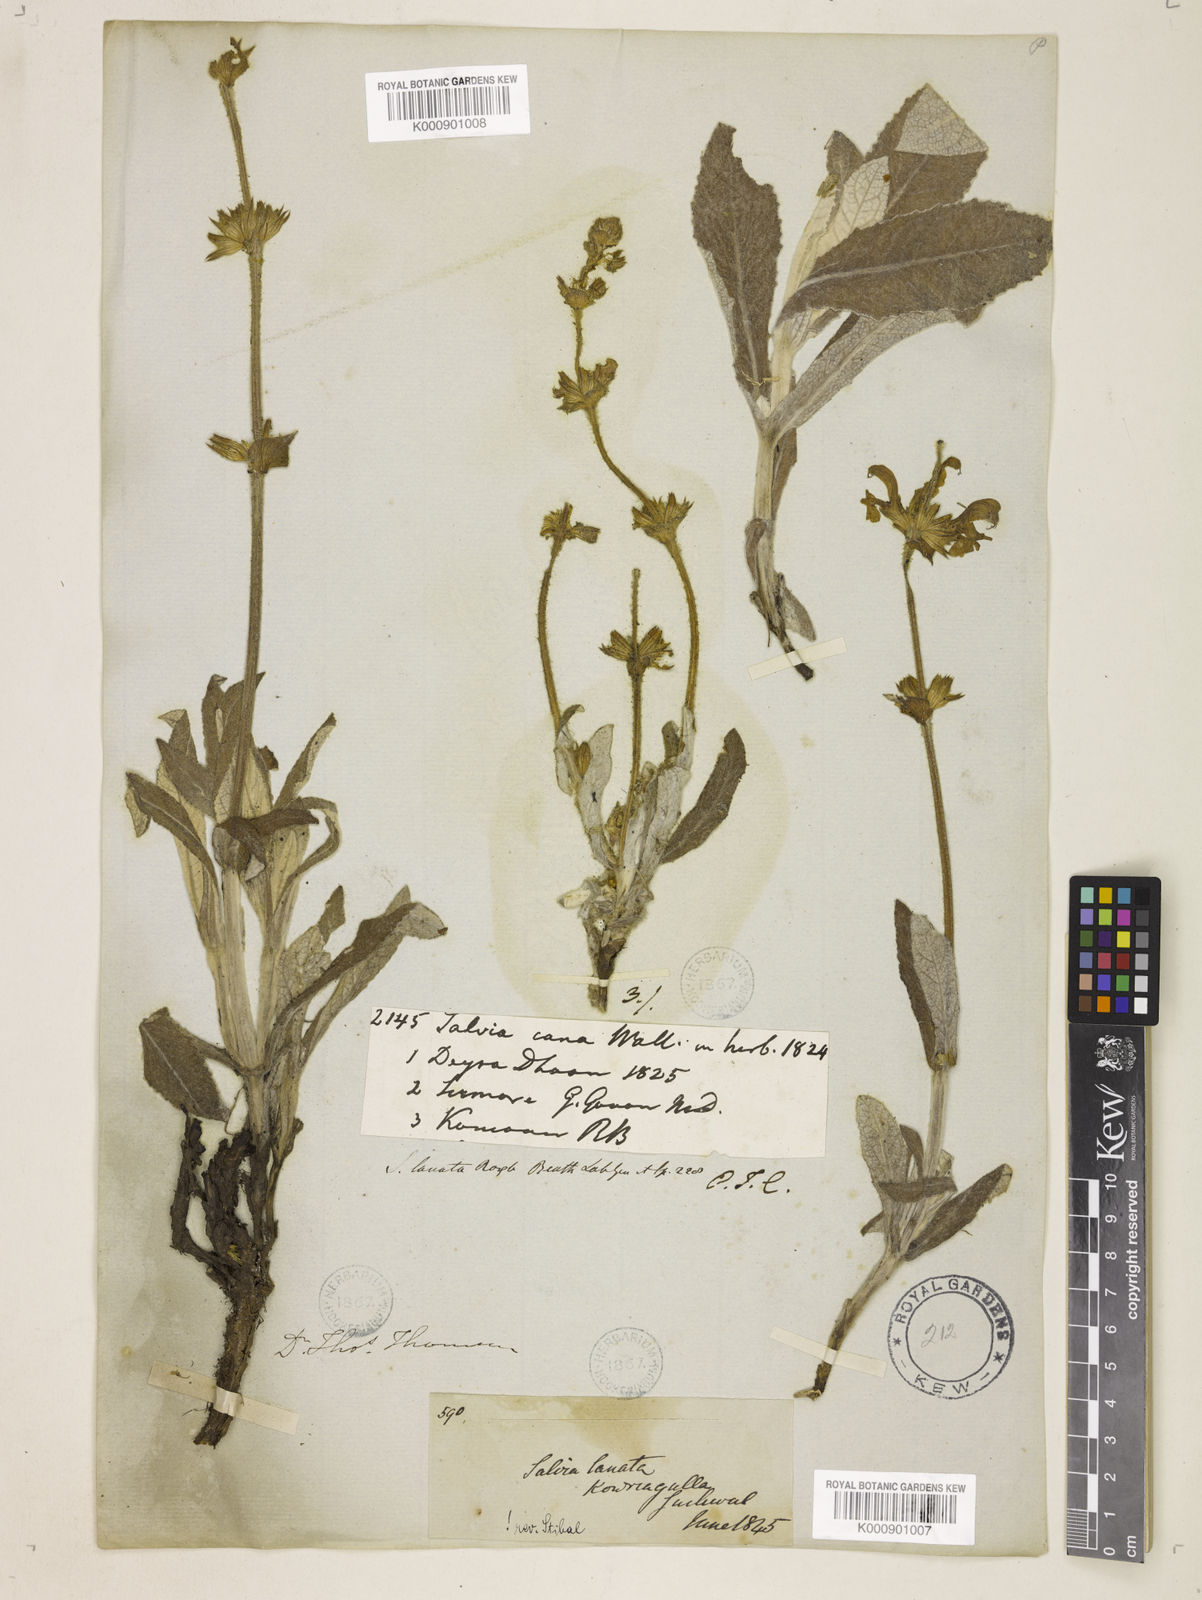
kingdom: Plantae
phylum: Tracheophyta
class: Magnoliopsida
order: Lamiales
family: Lamiaceae
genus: Salvia
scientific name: Salvia
